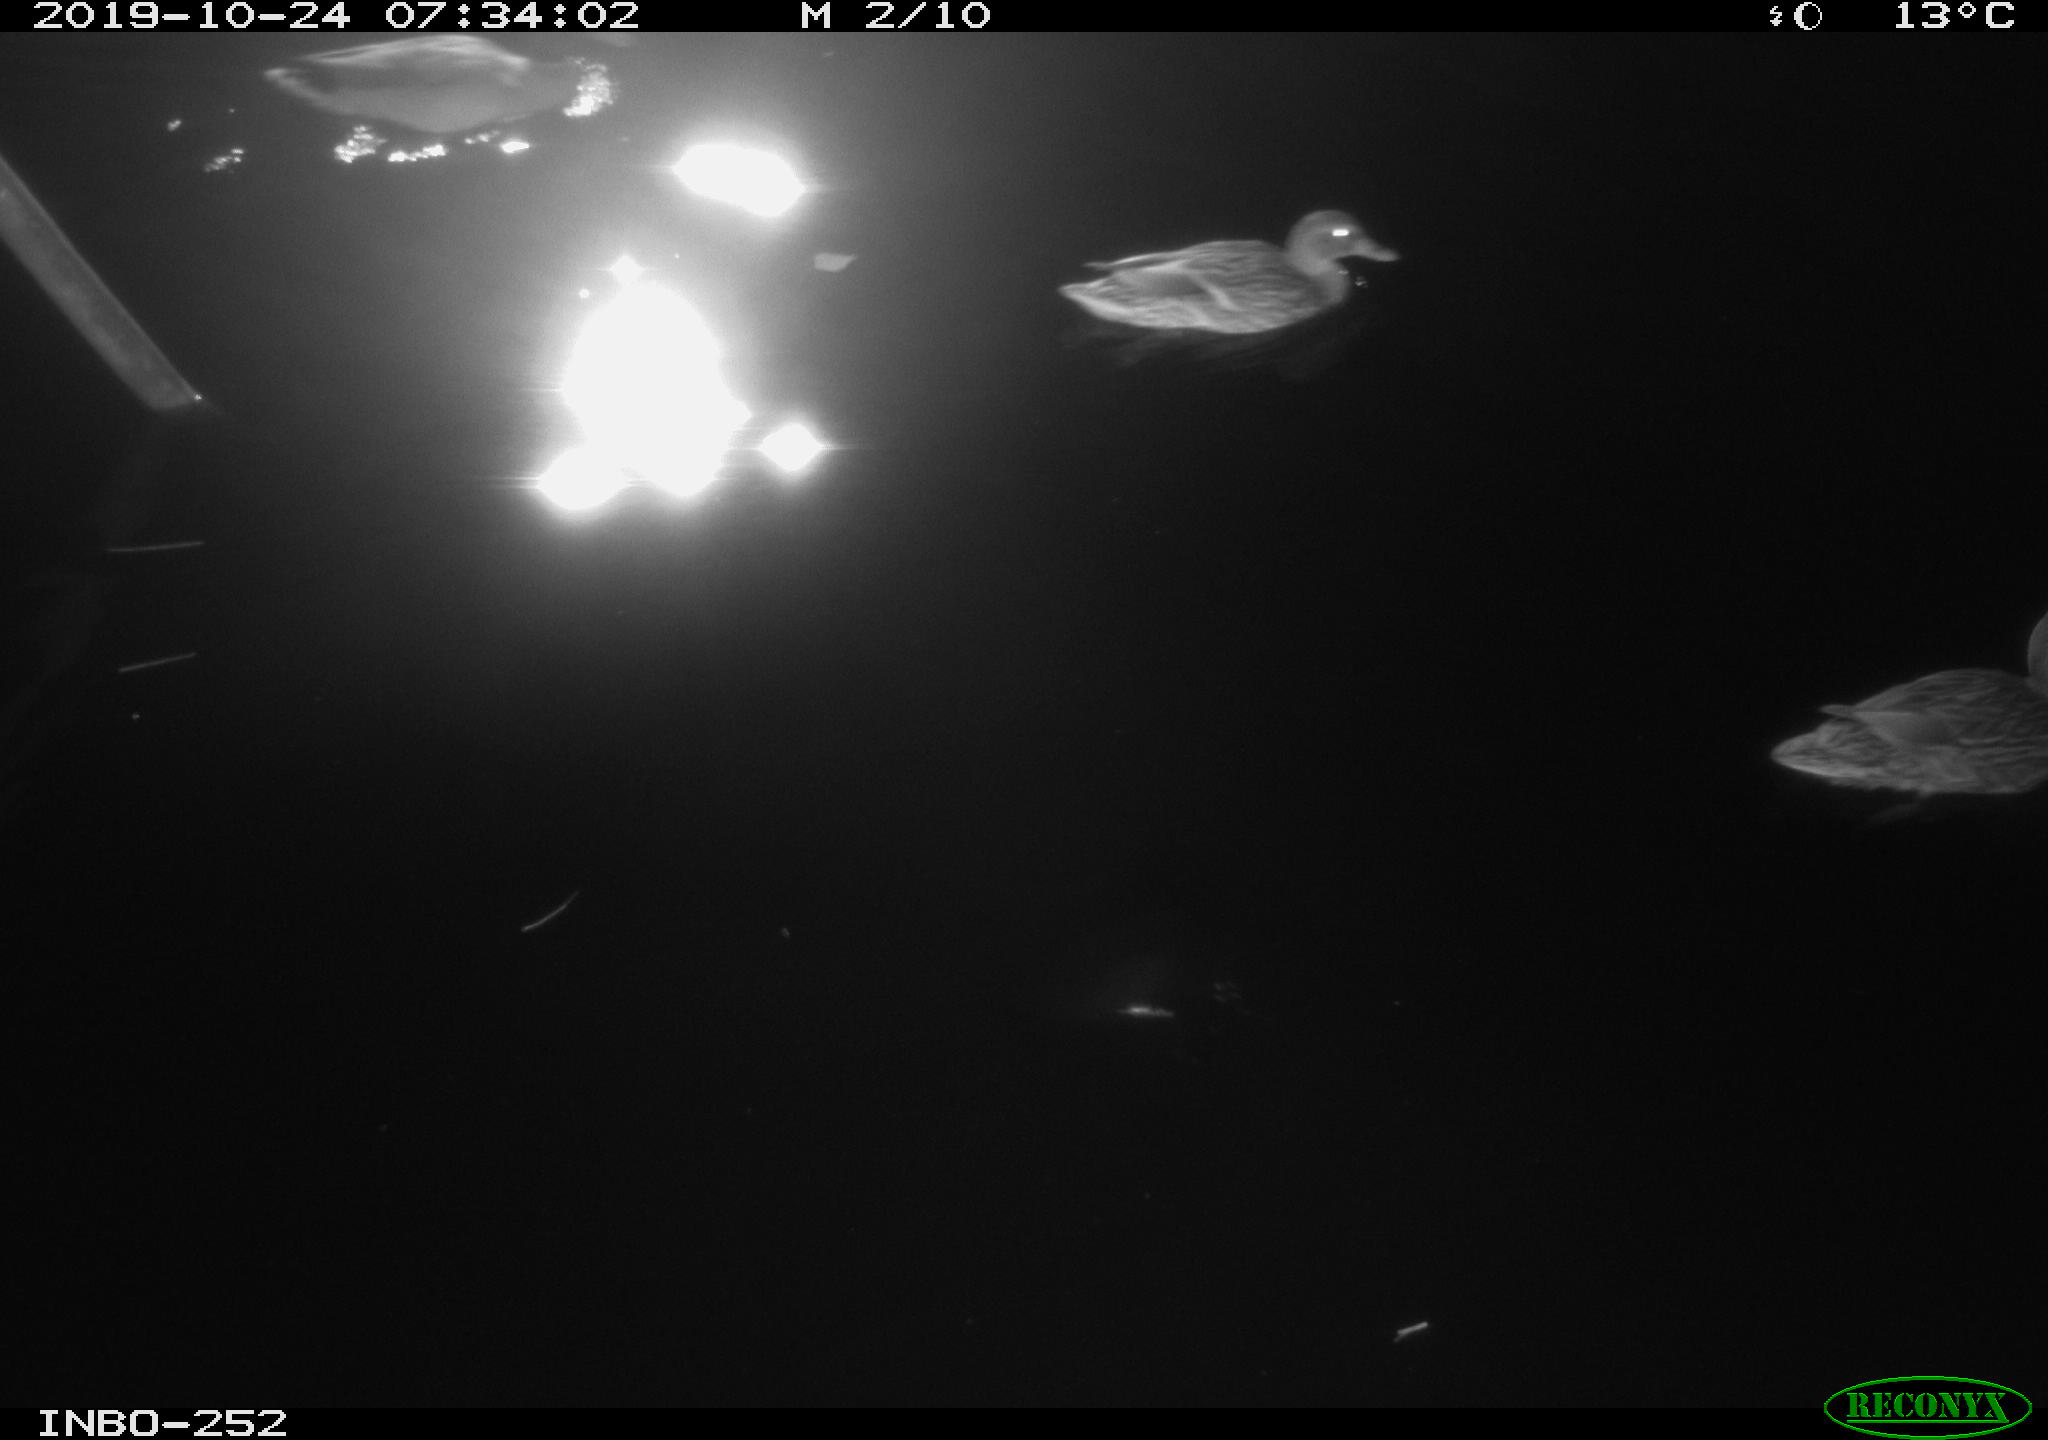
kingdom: Animalia
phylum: Chordata
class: Aves
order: Anseriformes
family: Anatidae
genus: Anas
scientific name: Anas platyrhynchos
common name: Mallard
